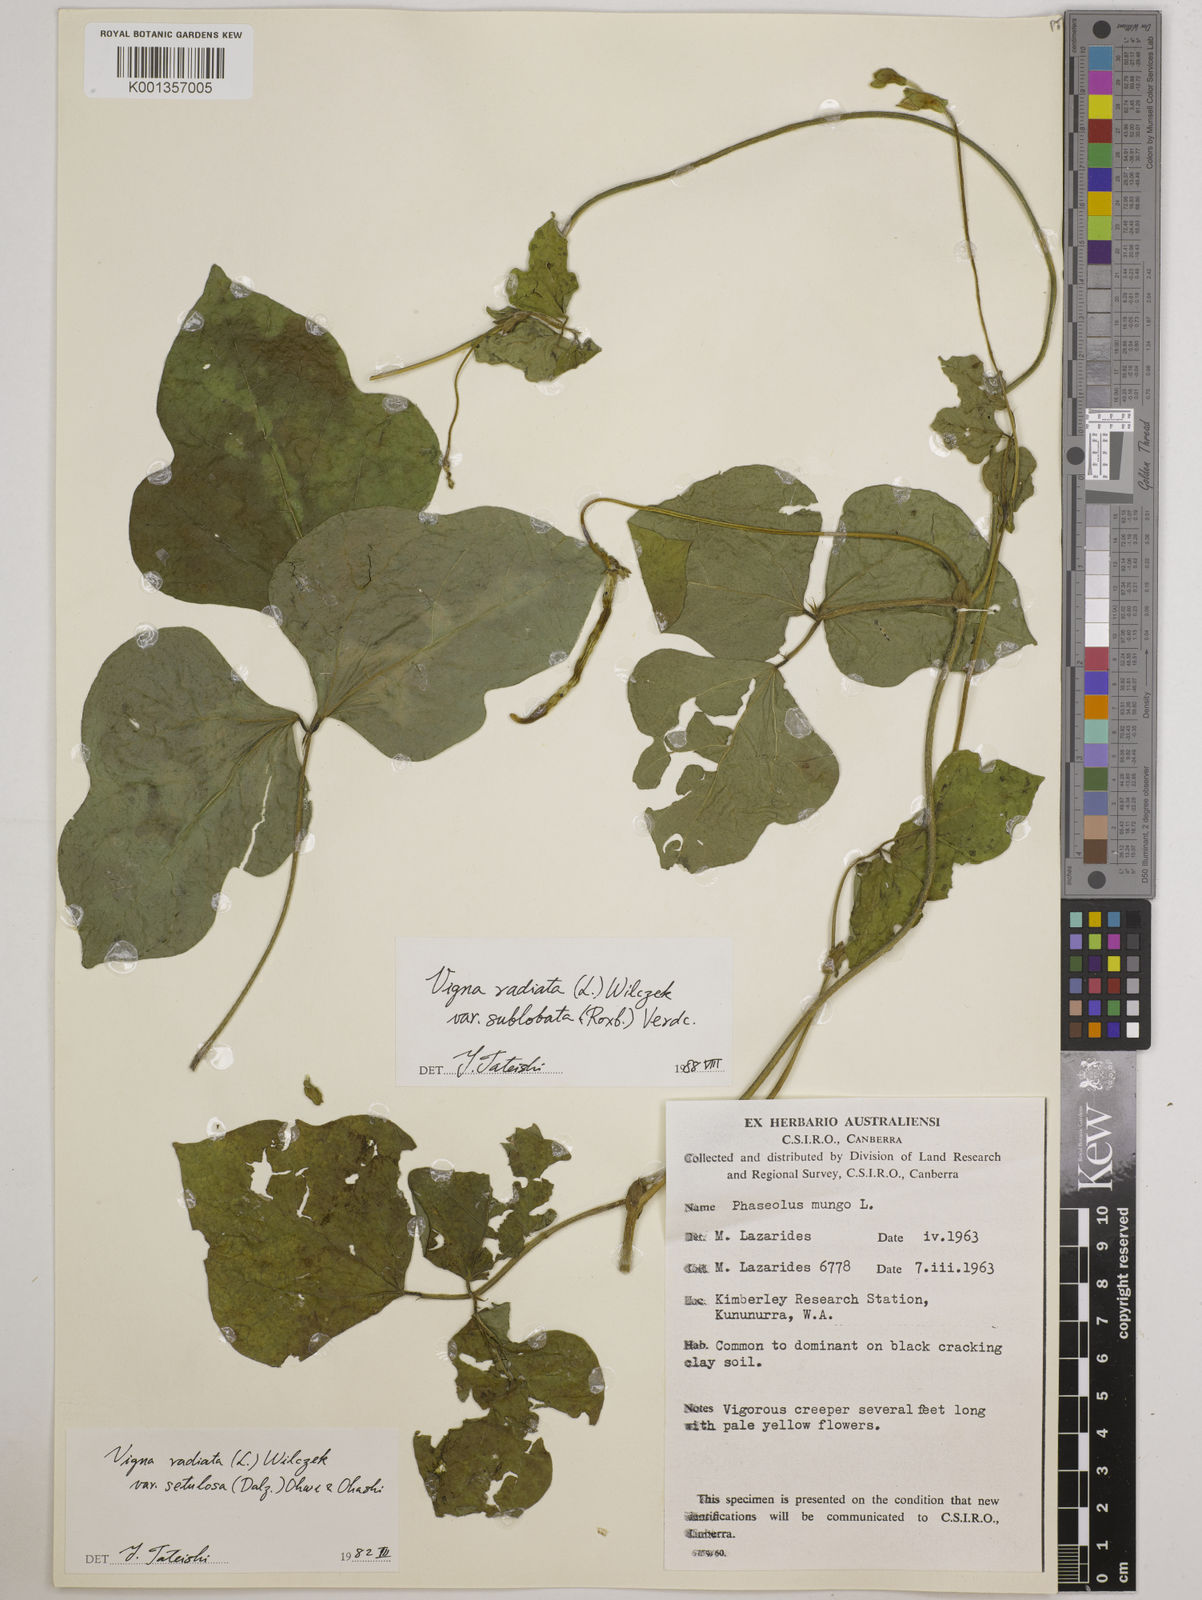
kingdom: Plantae
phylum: Tracheophyta
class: Magnoliopsida
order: Fabales
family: Fabaceae
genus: Vigna
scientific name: Vigna radiata
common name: Mung-bean
